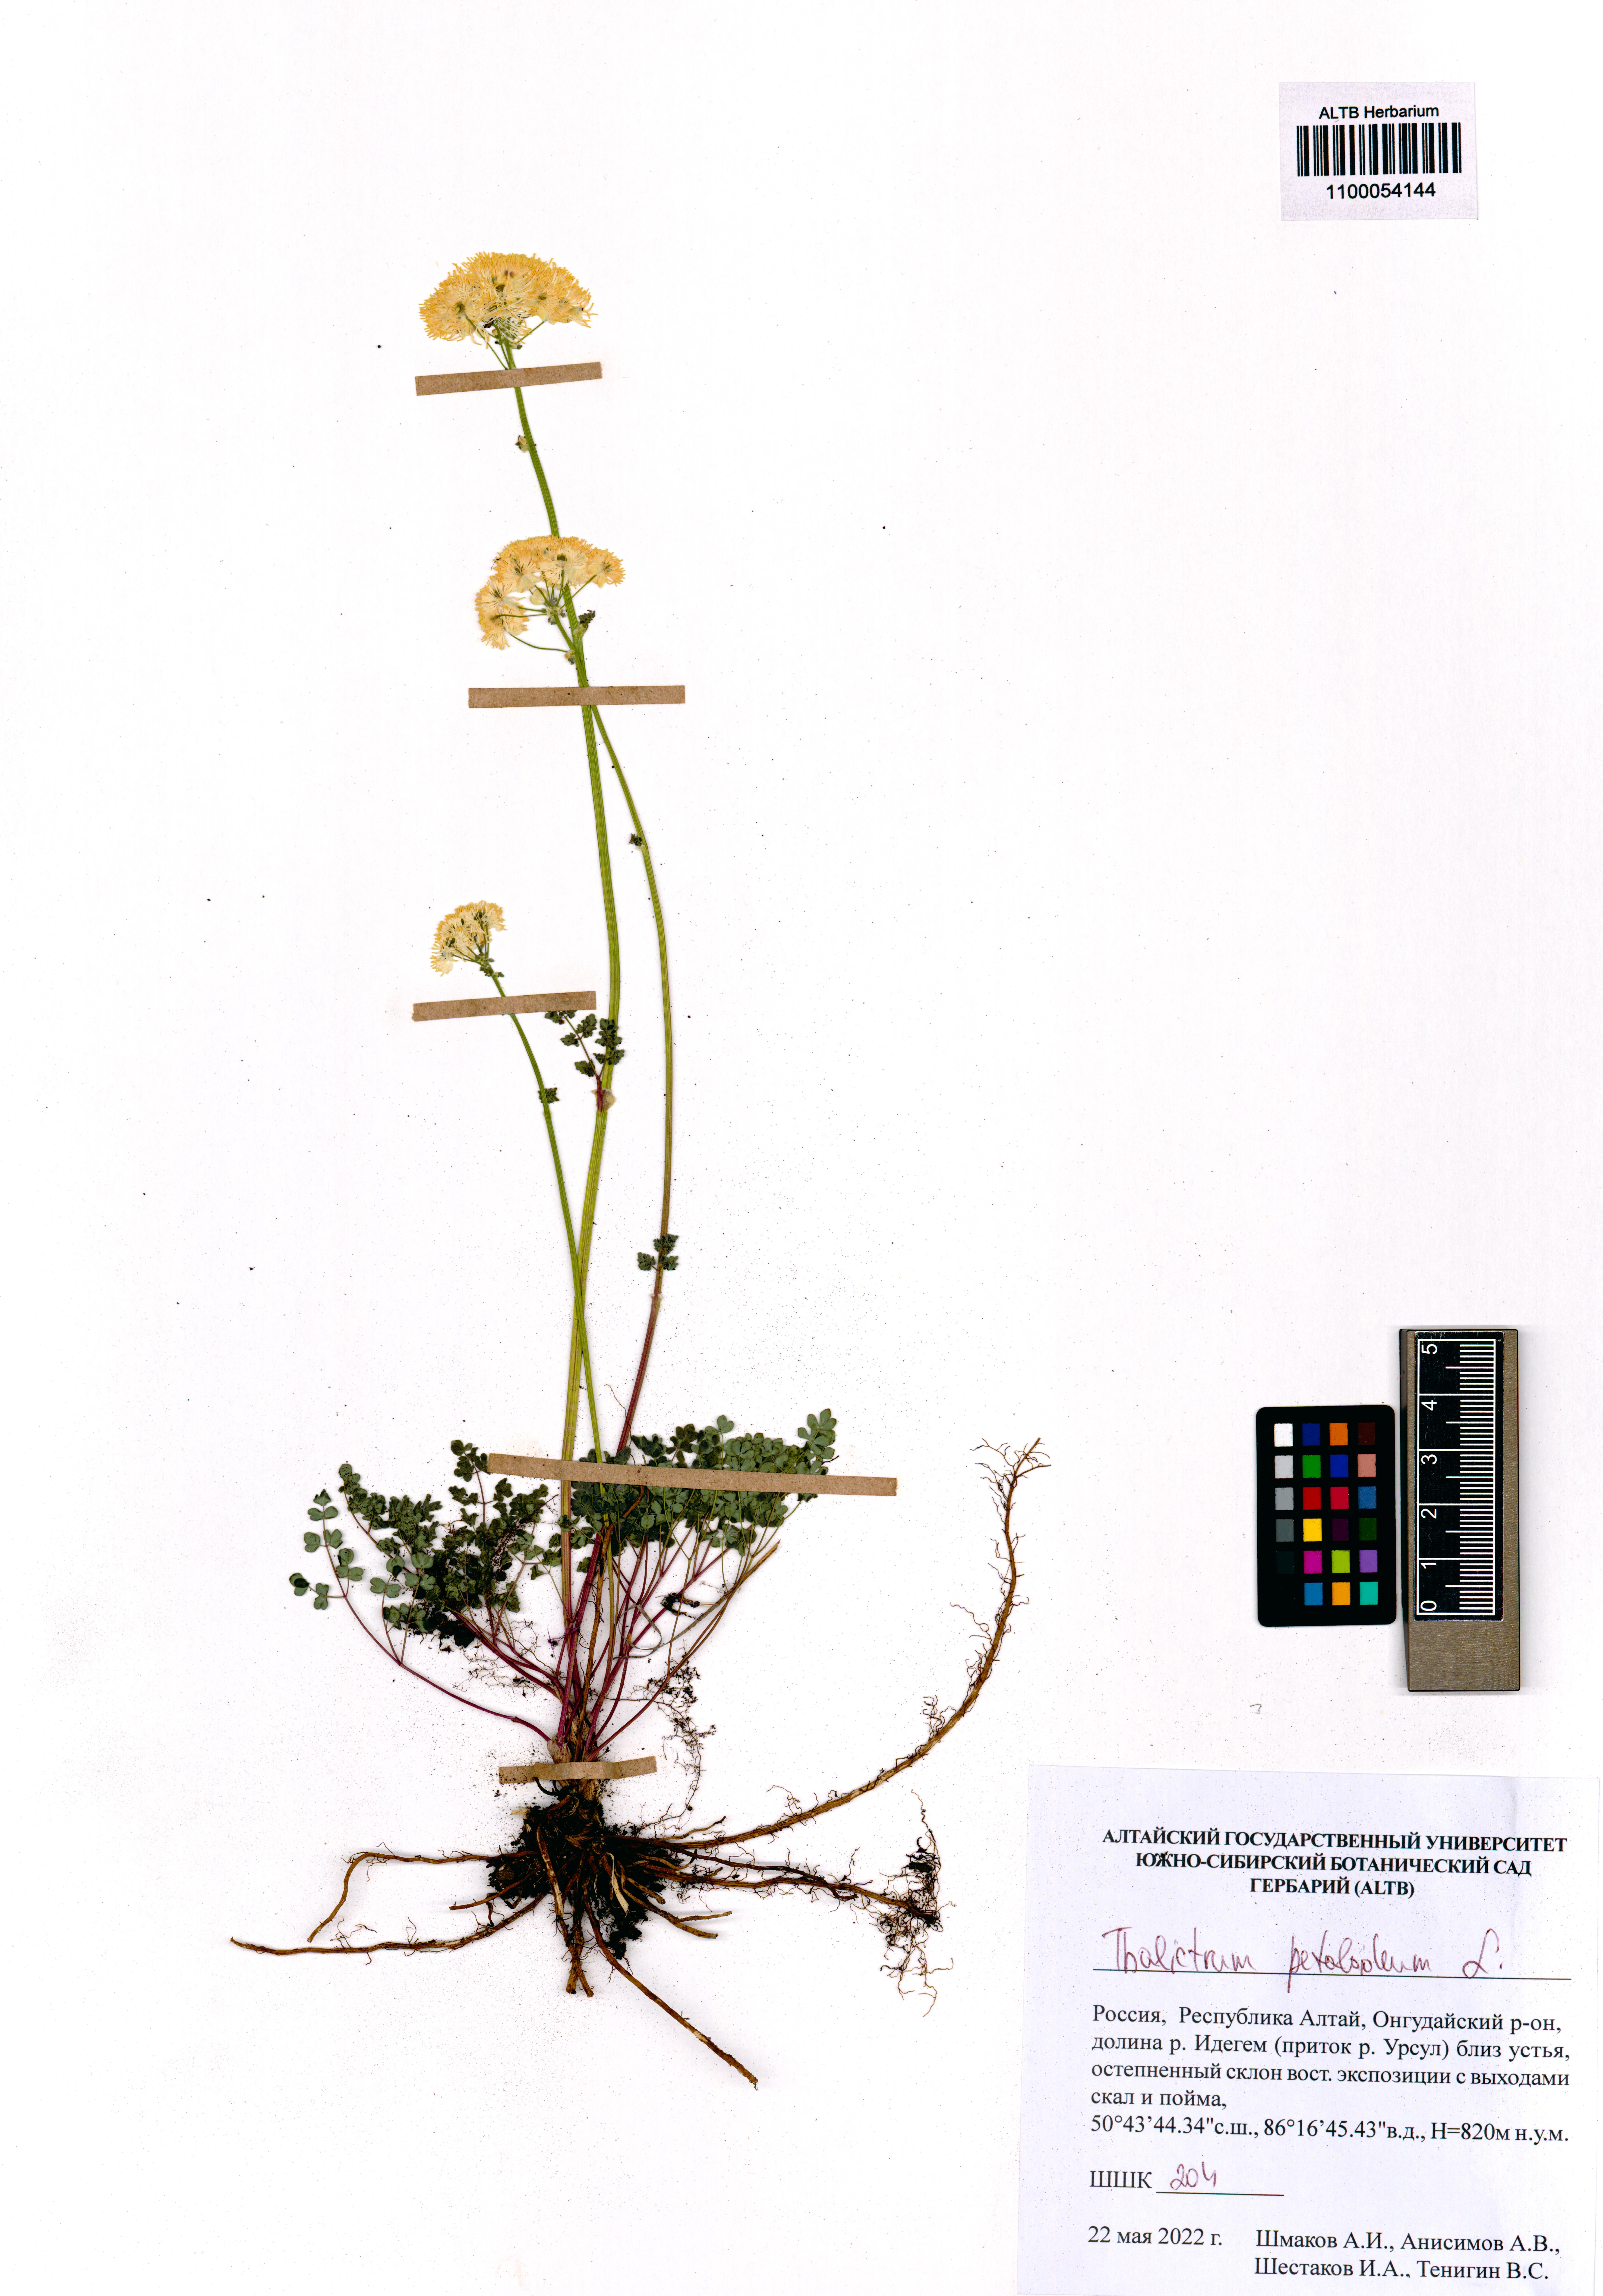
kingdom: Plantae
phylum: Tracheophyta
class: Magnoliopsida
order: Ranunculales
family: Ranunculaceae
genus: Thalictrum
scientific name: Thalictrum petaloideum
